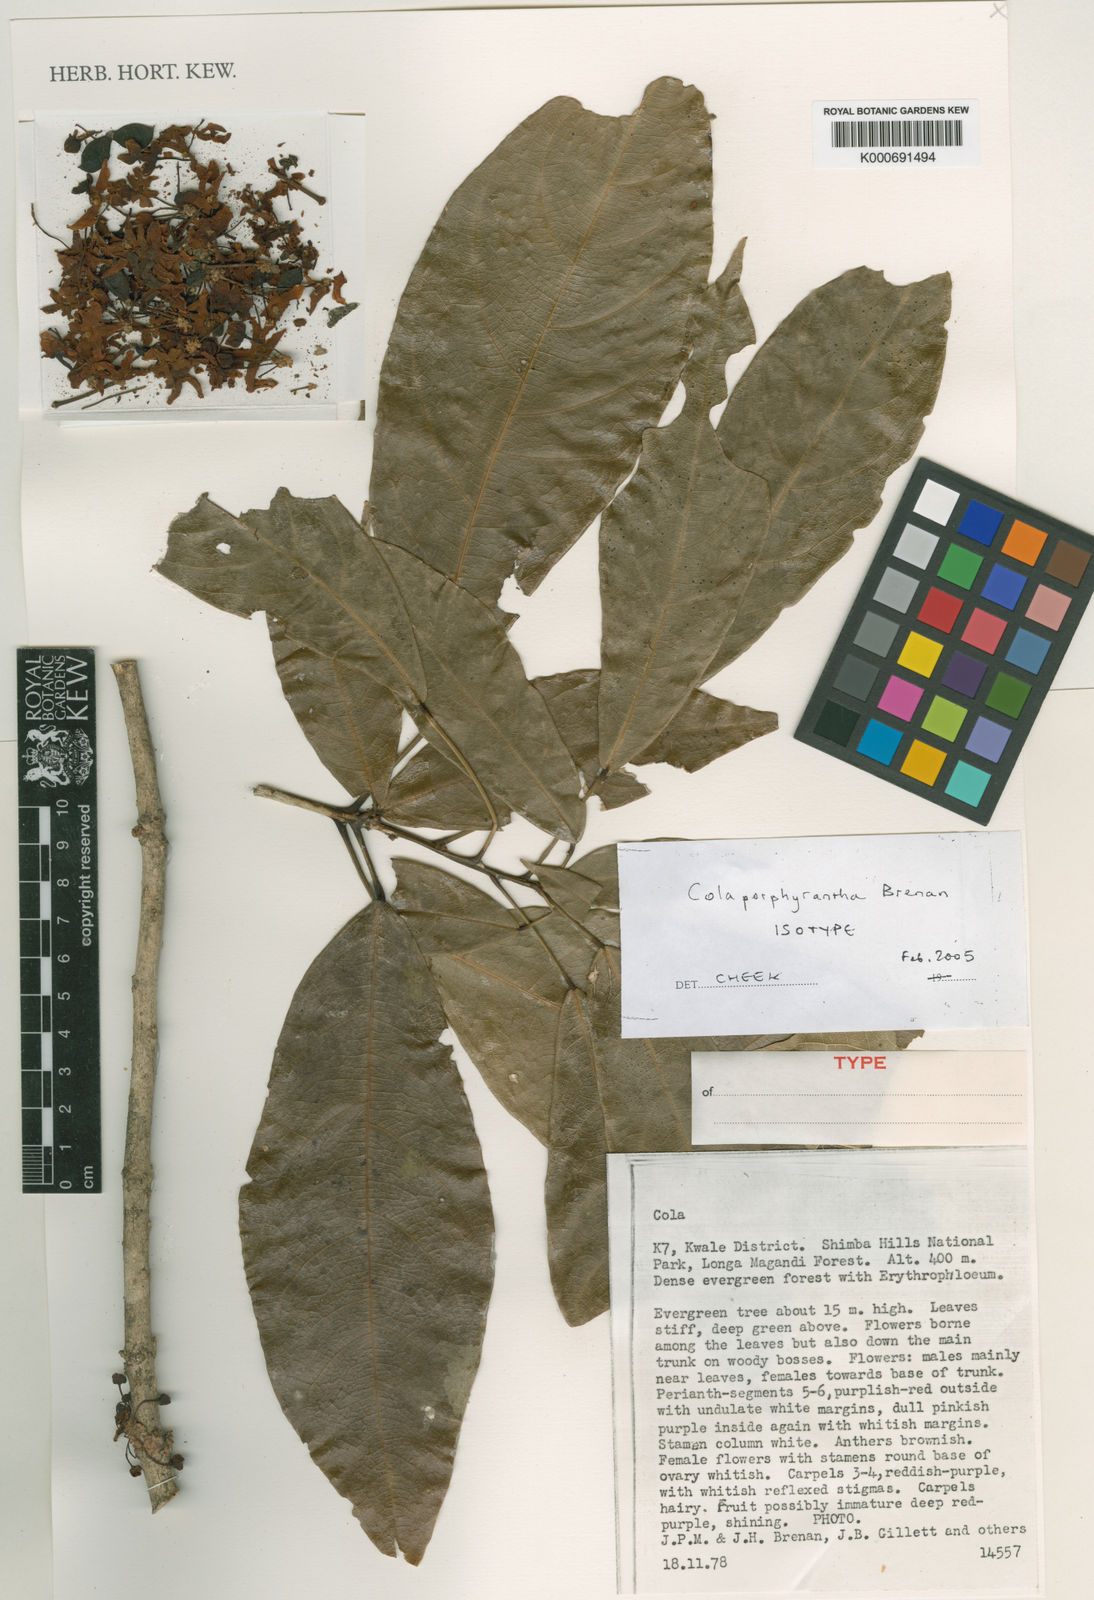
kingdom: Plantae
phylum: Tracheophyta
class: Magnoliopsida
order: Malvales
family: Malvaceae
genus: Cola
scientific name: Cola porphyrantha
